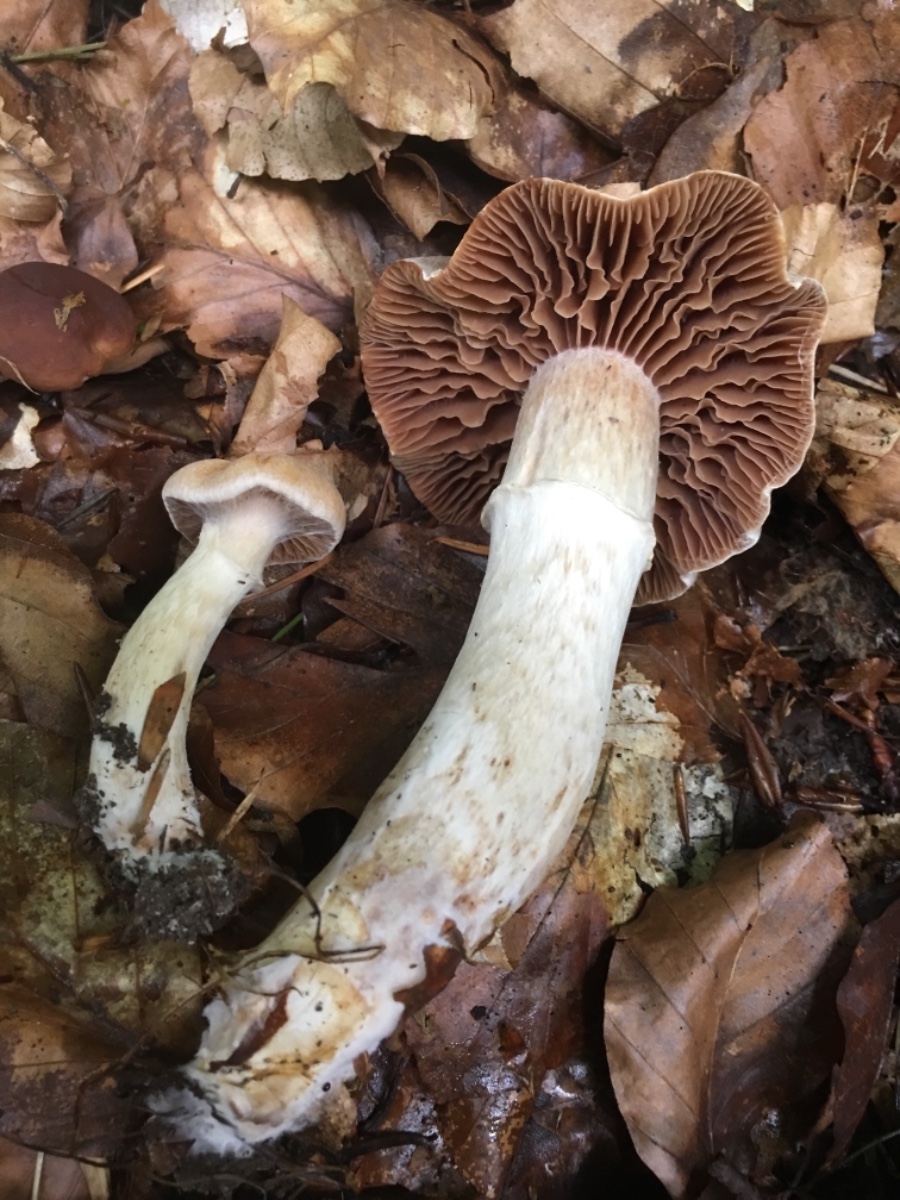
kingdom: Fungi
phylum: Basidiomycota
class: Agaricomycetes
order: Agaricales
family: Cortinariaceae
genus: Cortinarius
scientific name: Cortinarius
